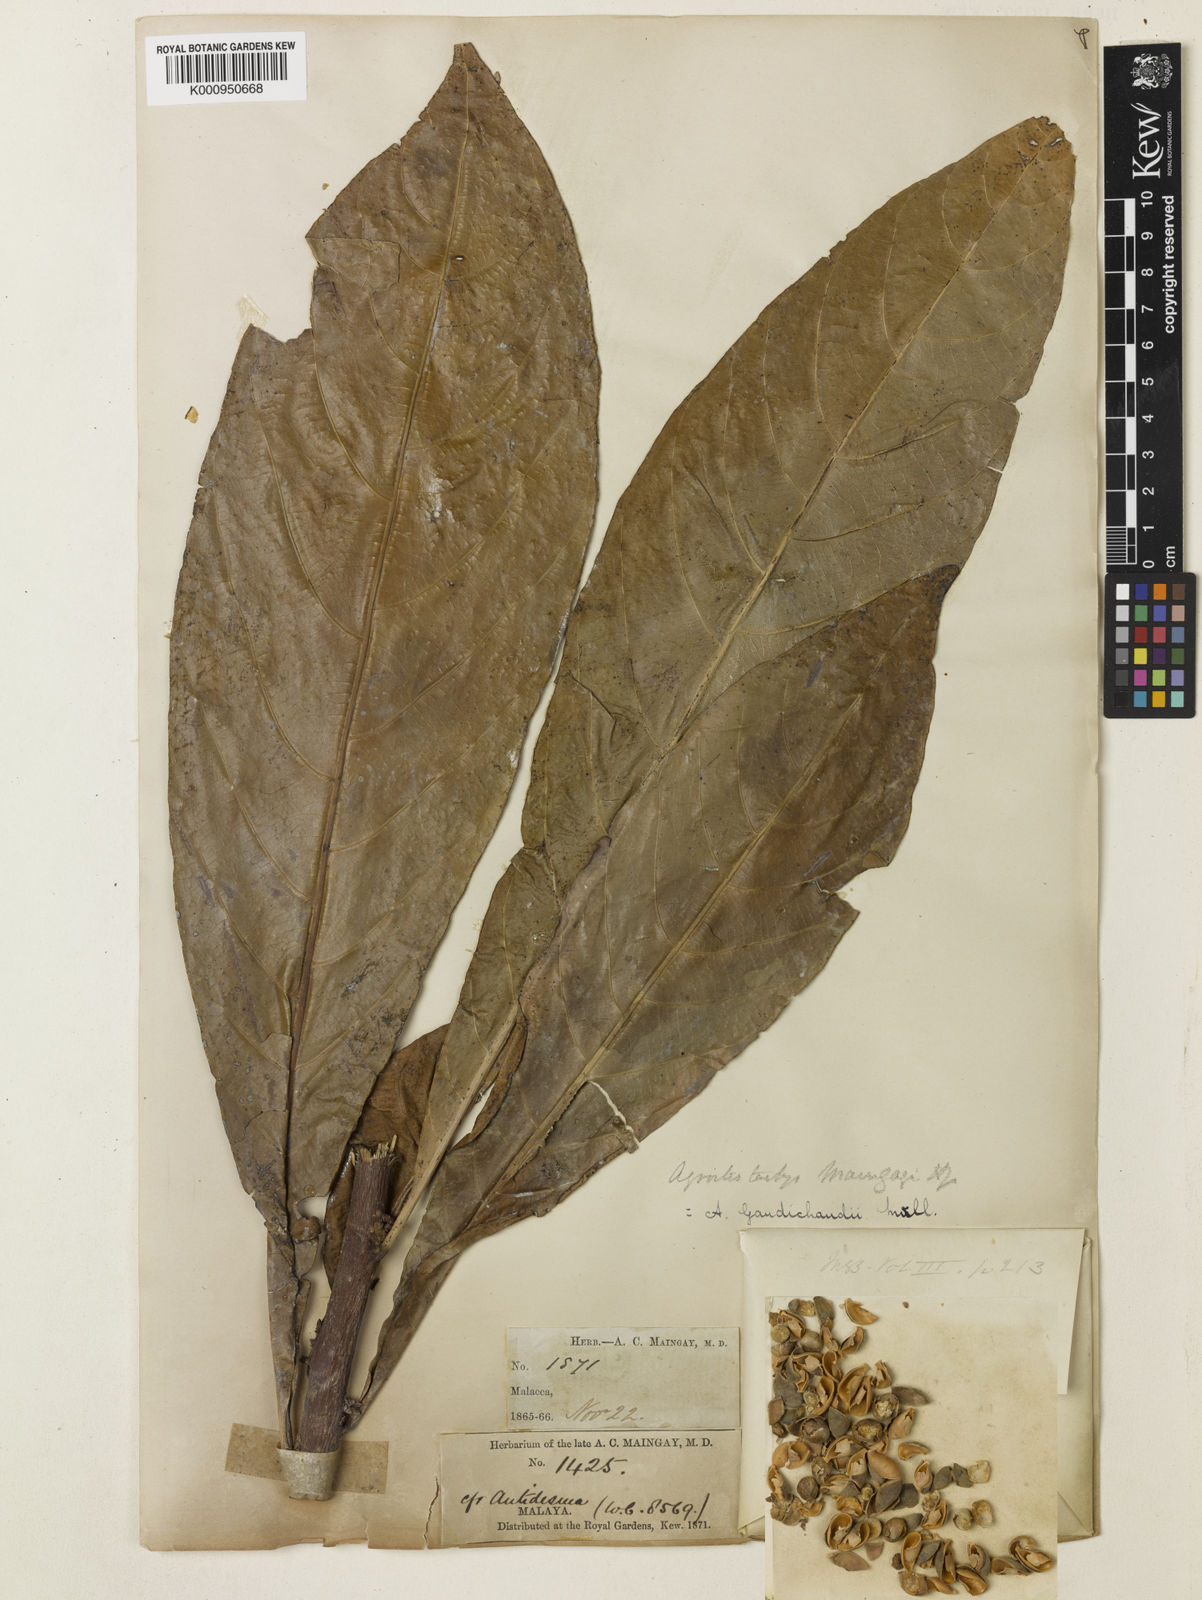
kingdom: Plantae
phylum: Tracheophyta
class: Magnoliopsida
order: Malpighiales
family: Euphorbiaceae
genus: Agrostistachys
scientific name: Agrostistachys
